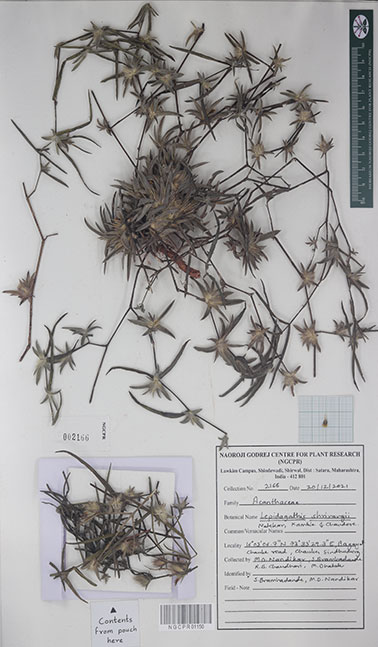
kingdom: Plantae
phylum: Tracheophyta
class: Magnoliopsida
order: Lamiales
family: Acanthaceae
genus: Lepidagathis
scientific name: Lepidagathis shrirangii
